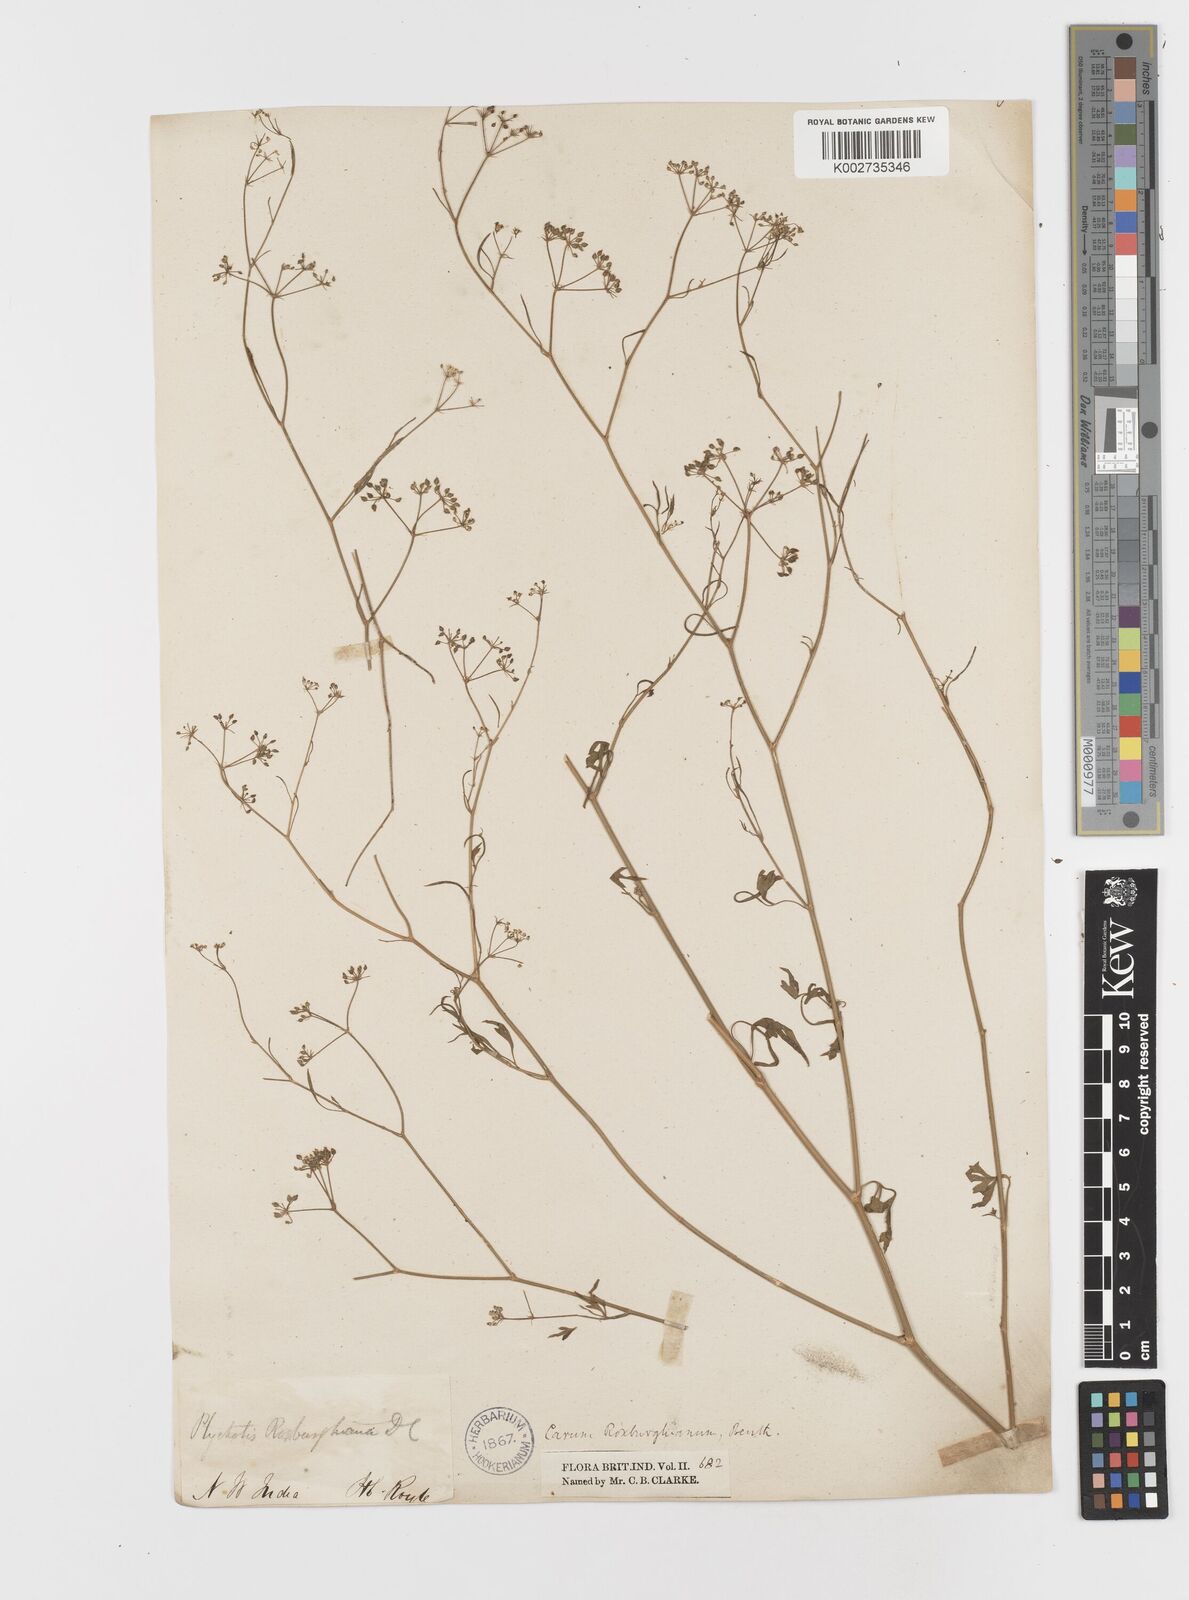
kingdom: Plantae
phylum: Tracheophyta
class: Magnoliopsida
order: Apiales
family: Apiaceae
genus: Psammogeton
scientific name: Psammogeton involucratum
